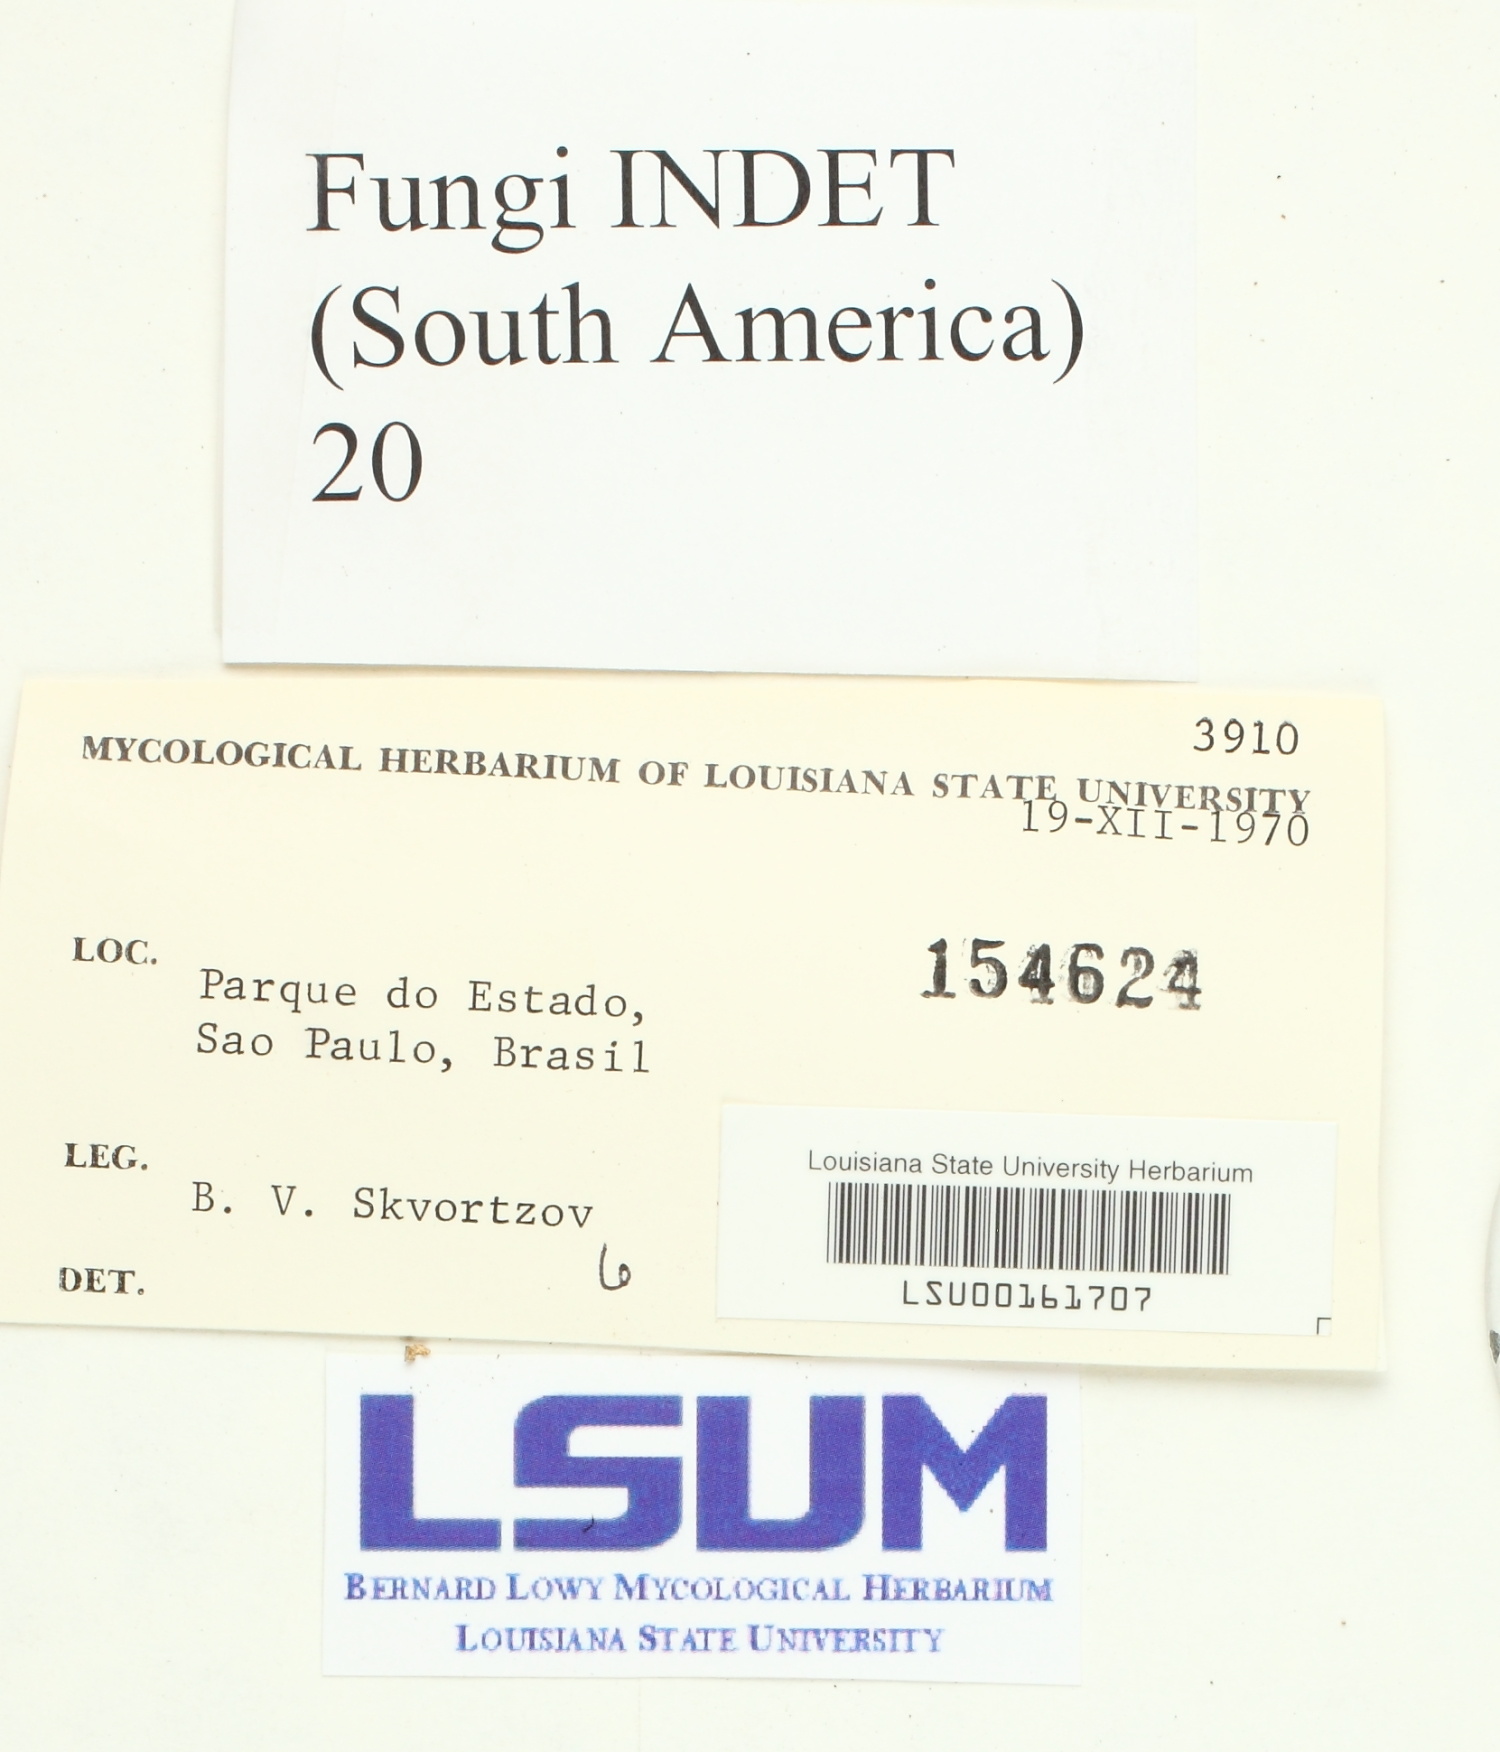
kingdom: Fungi
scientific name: Fungi
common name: Fungi
